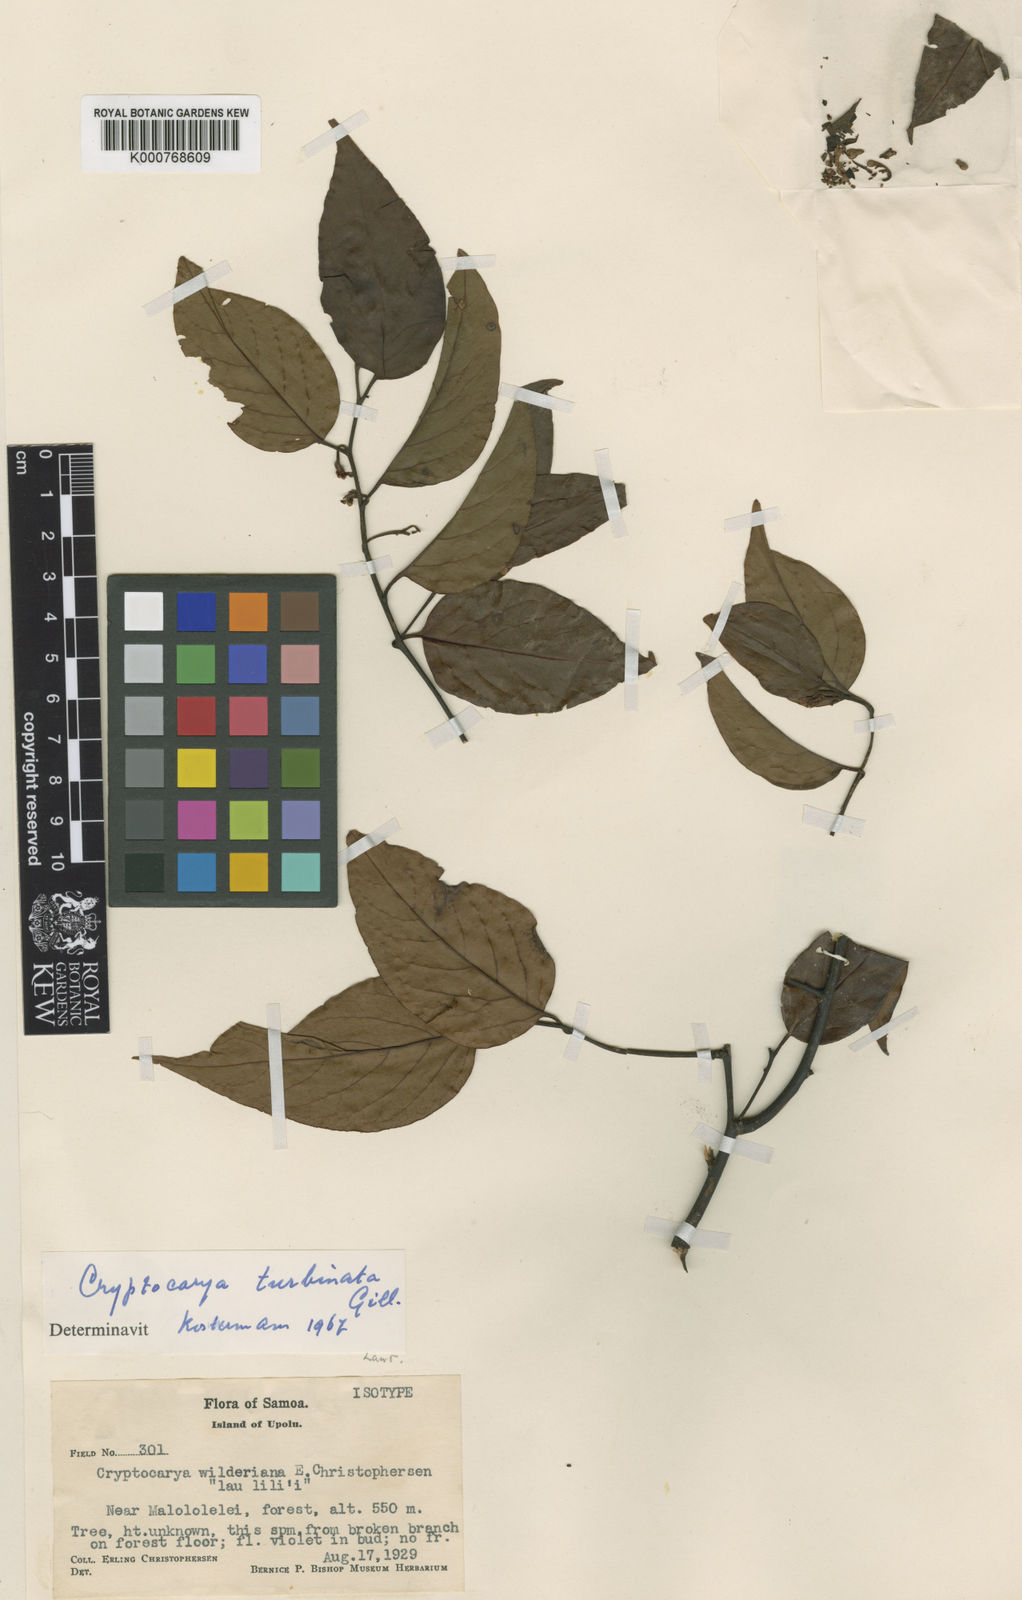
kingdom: Plantae
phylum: Tracheophyta
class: Magnoliopsida
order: Laurales
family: Lauraceae
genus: Cryptocarya
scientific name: Cryptocarya turbinata
